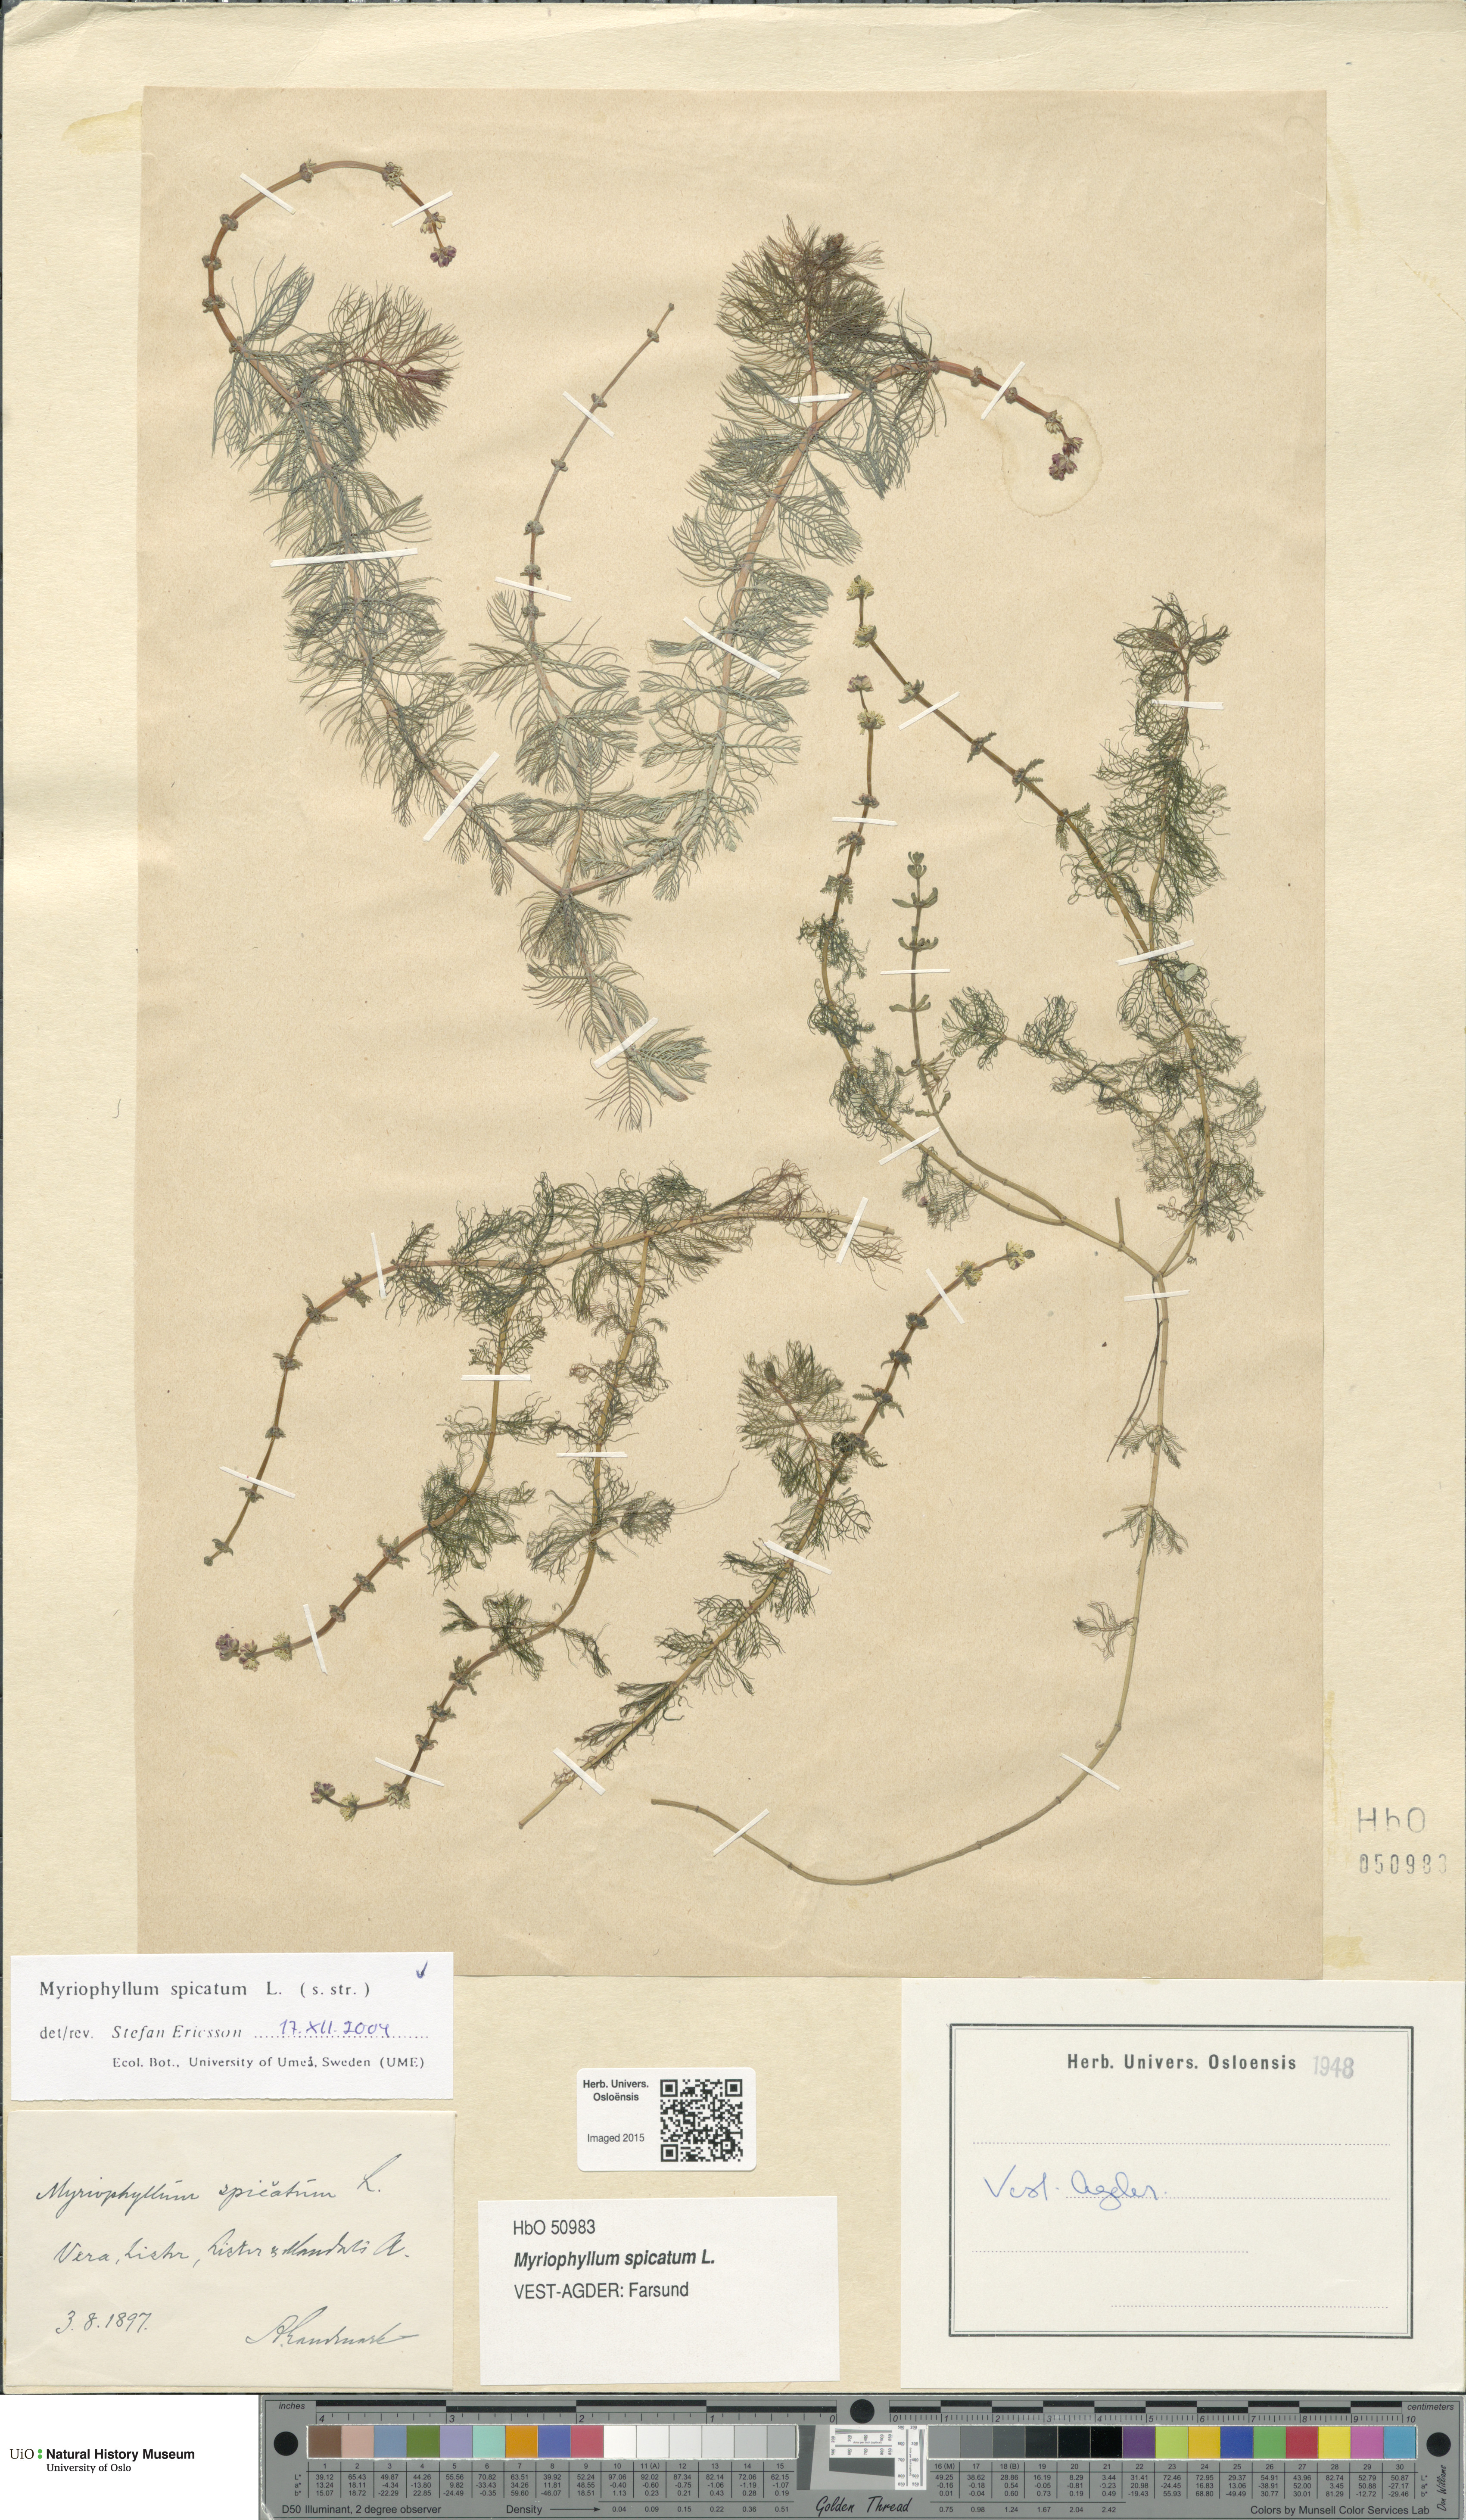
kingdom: Plantae
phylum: Tracheophyta
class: Magnoliopsida
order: Saxifragales
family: Haloragaceae
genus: Myriophyllum
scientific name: Myriophyllum spicatum
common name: Spiked water-milfoil
